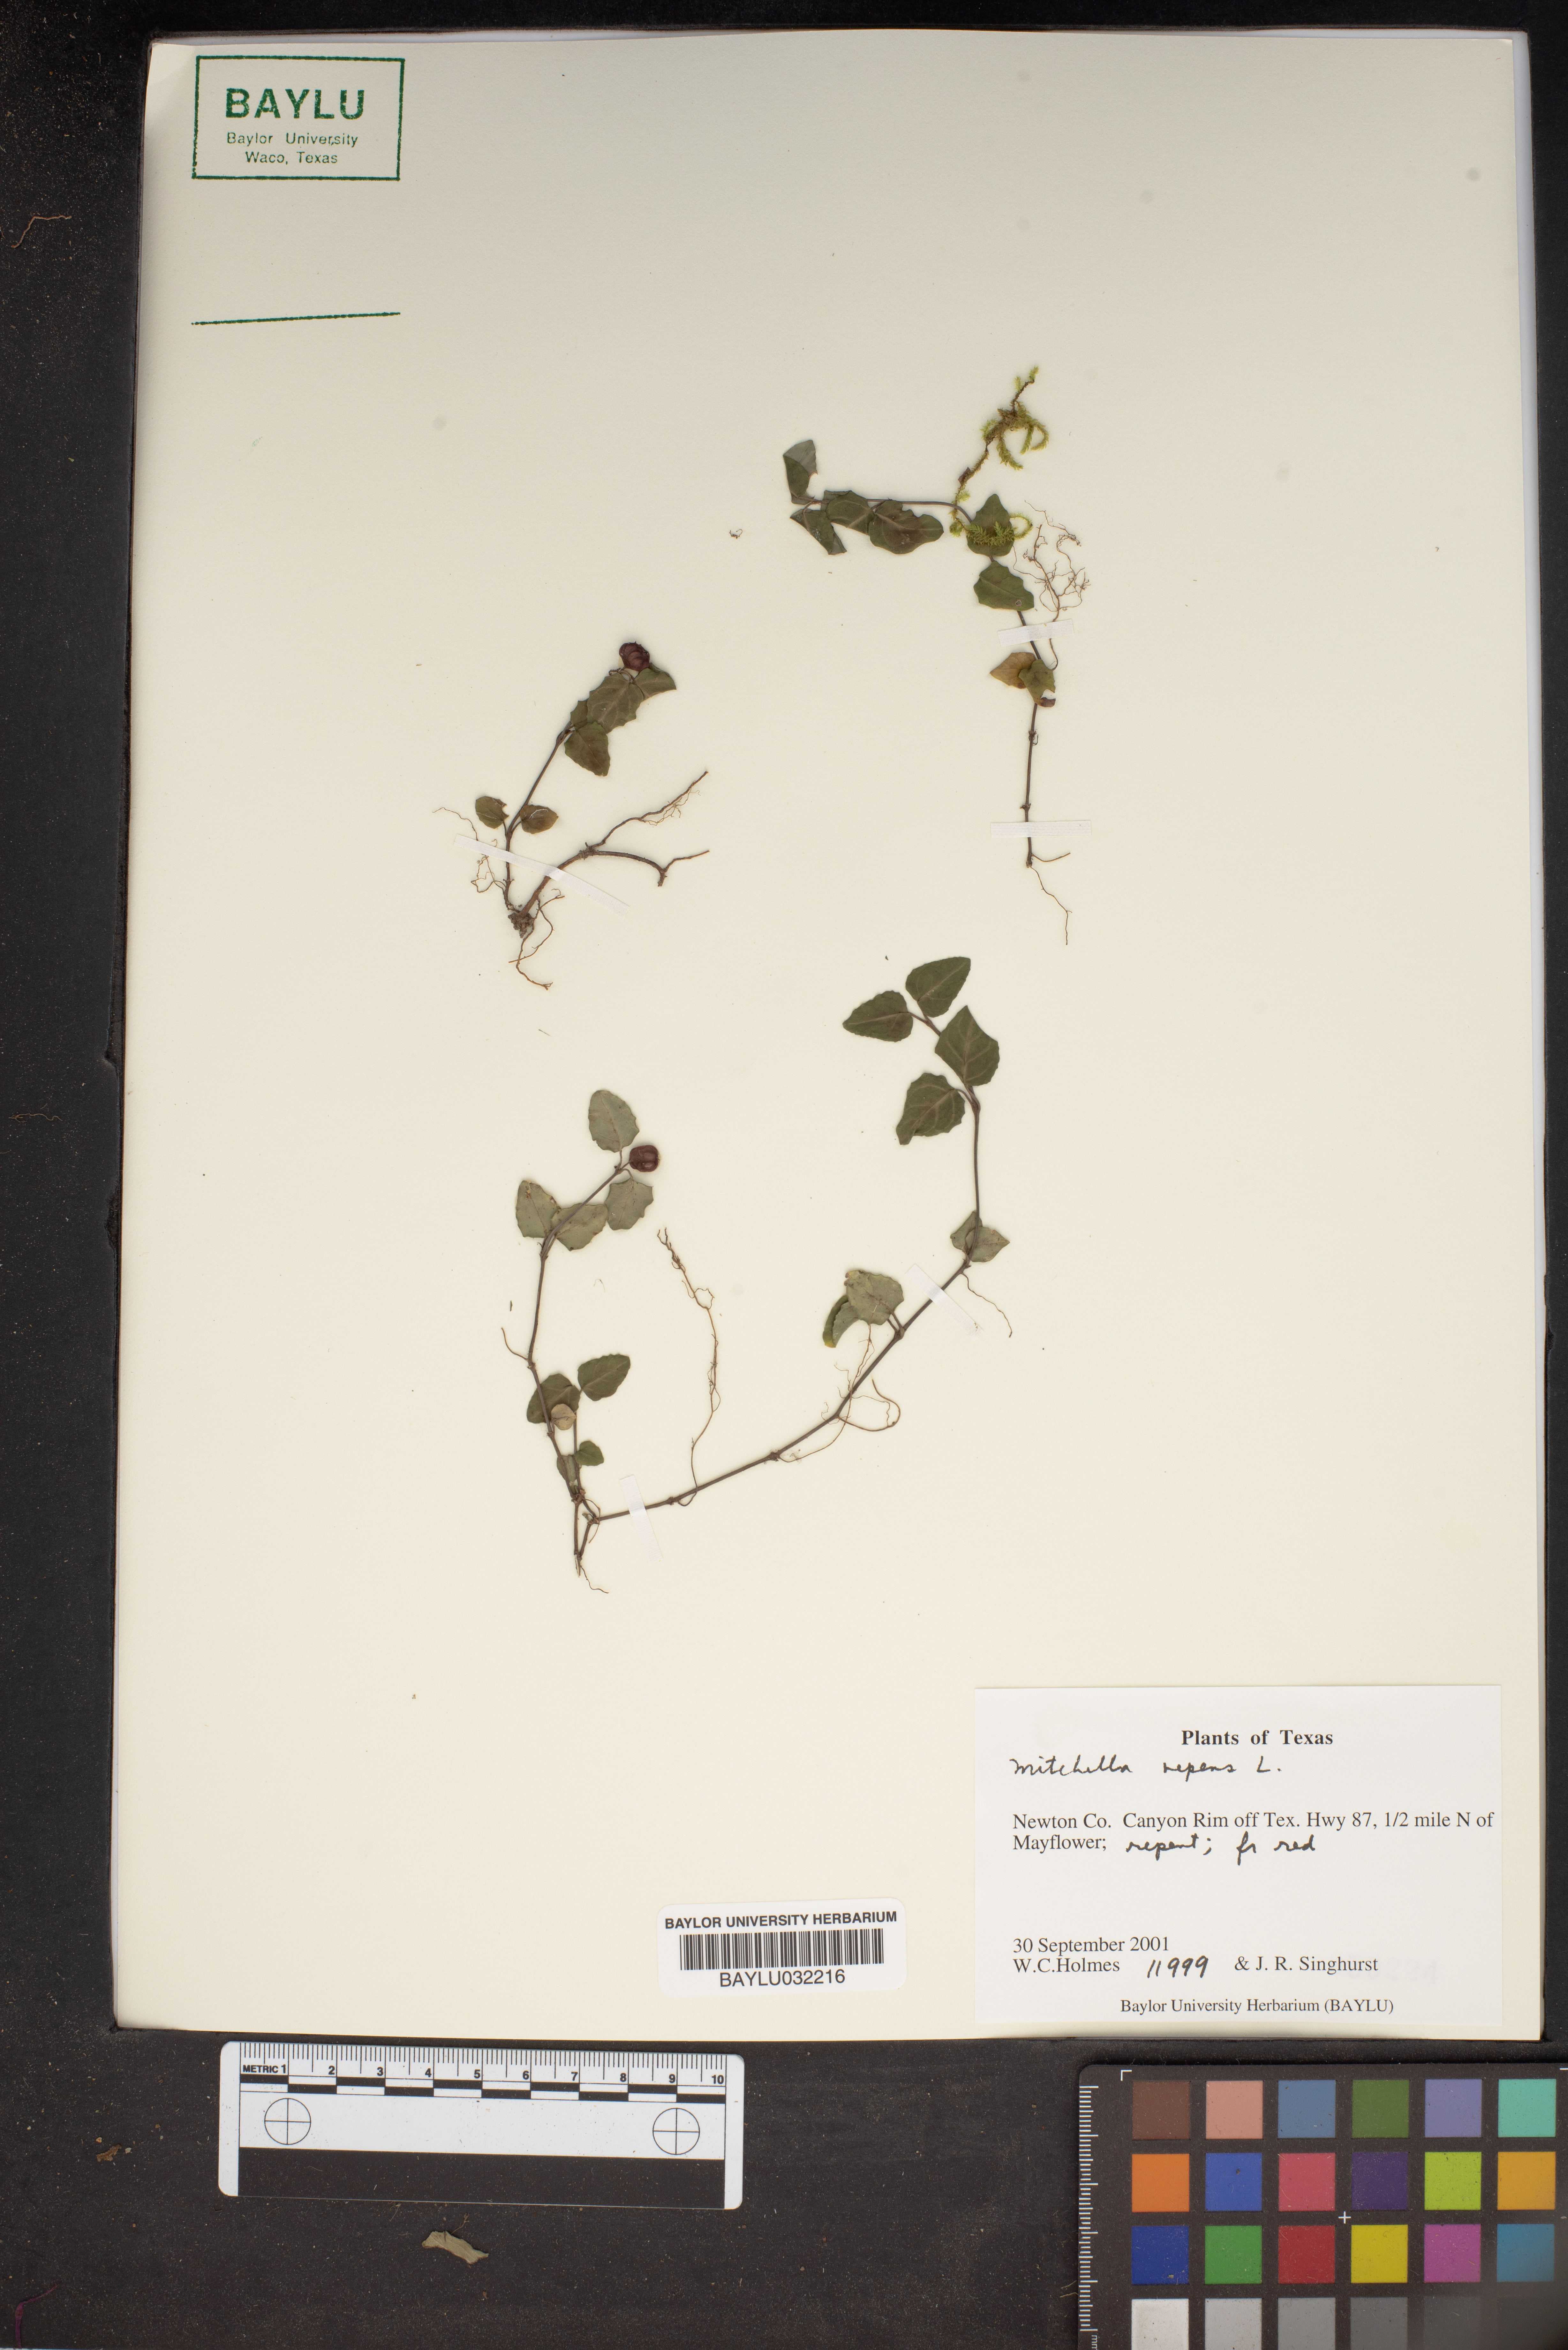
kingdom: Plantae
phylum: Tracheophyta
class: Magnoliopsida
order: Gentianales
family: Rubiaceae
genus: Mitchella
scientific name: Mitchella repens
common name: Partridge-berry
